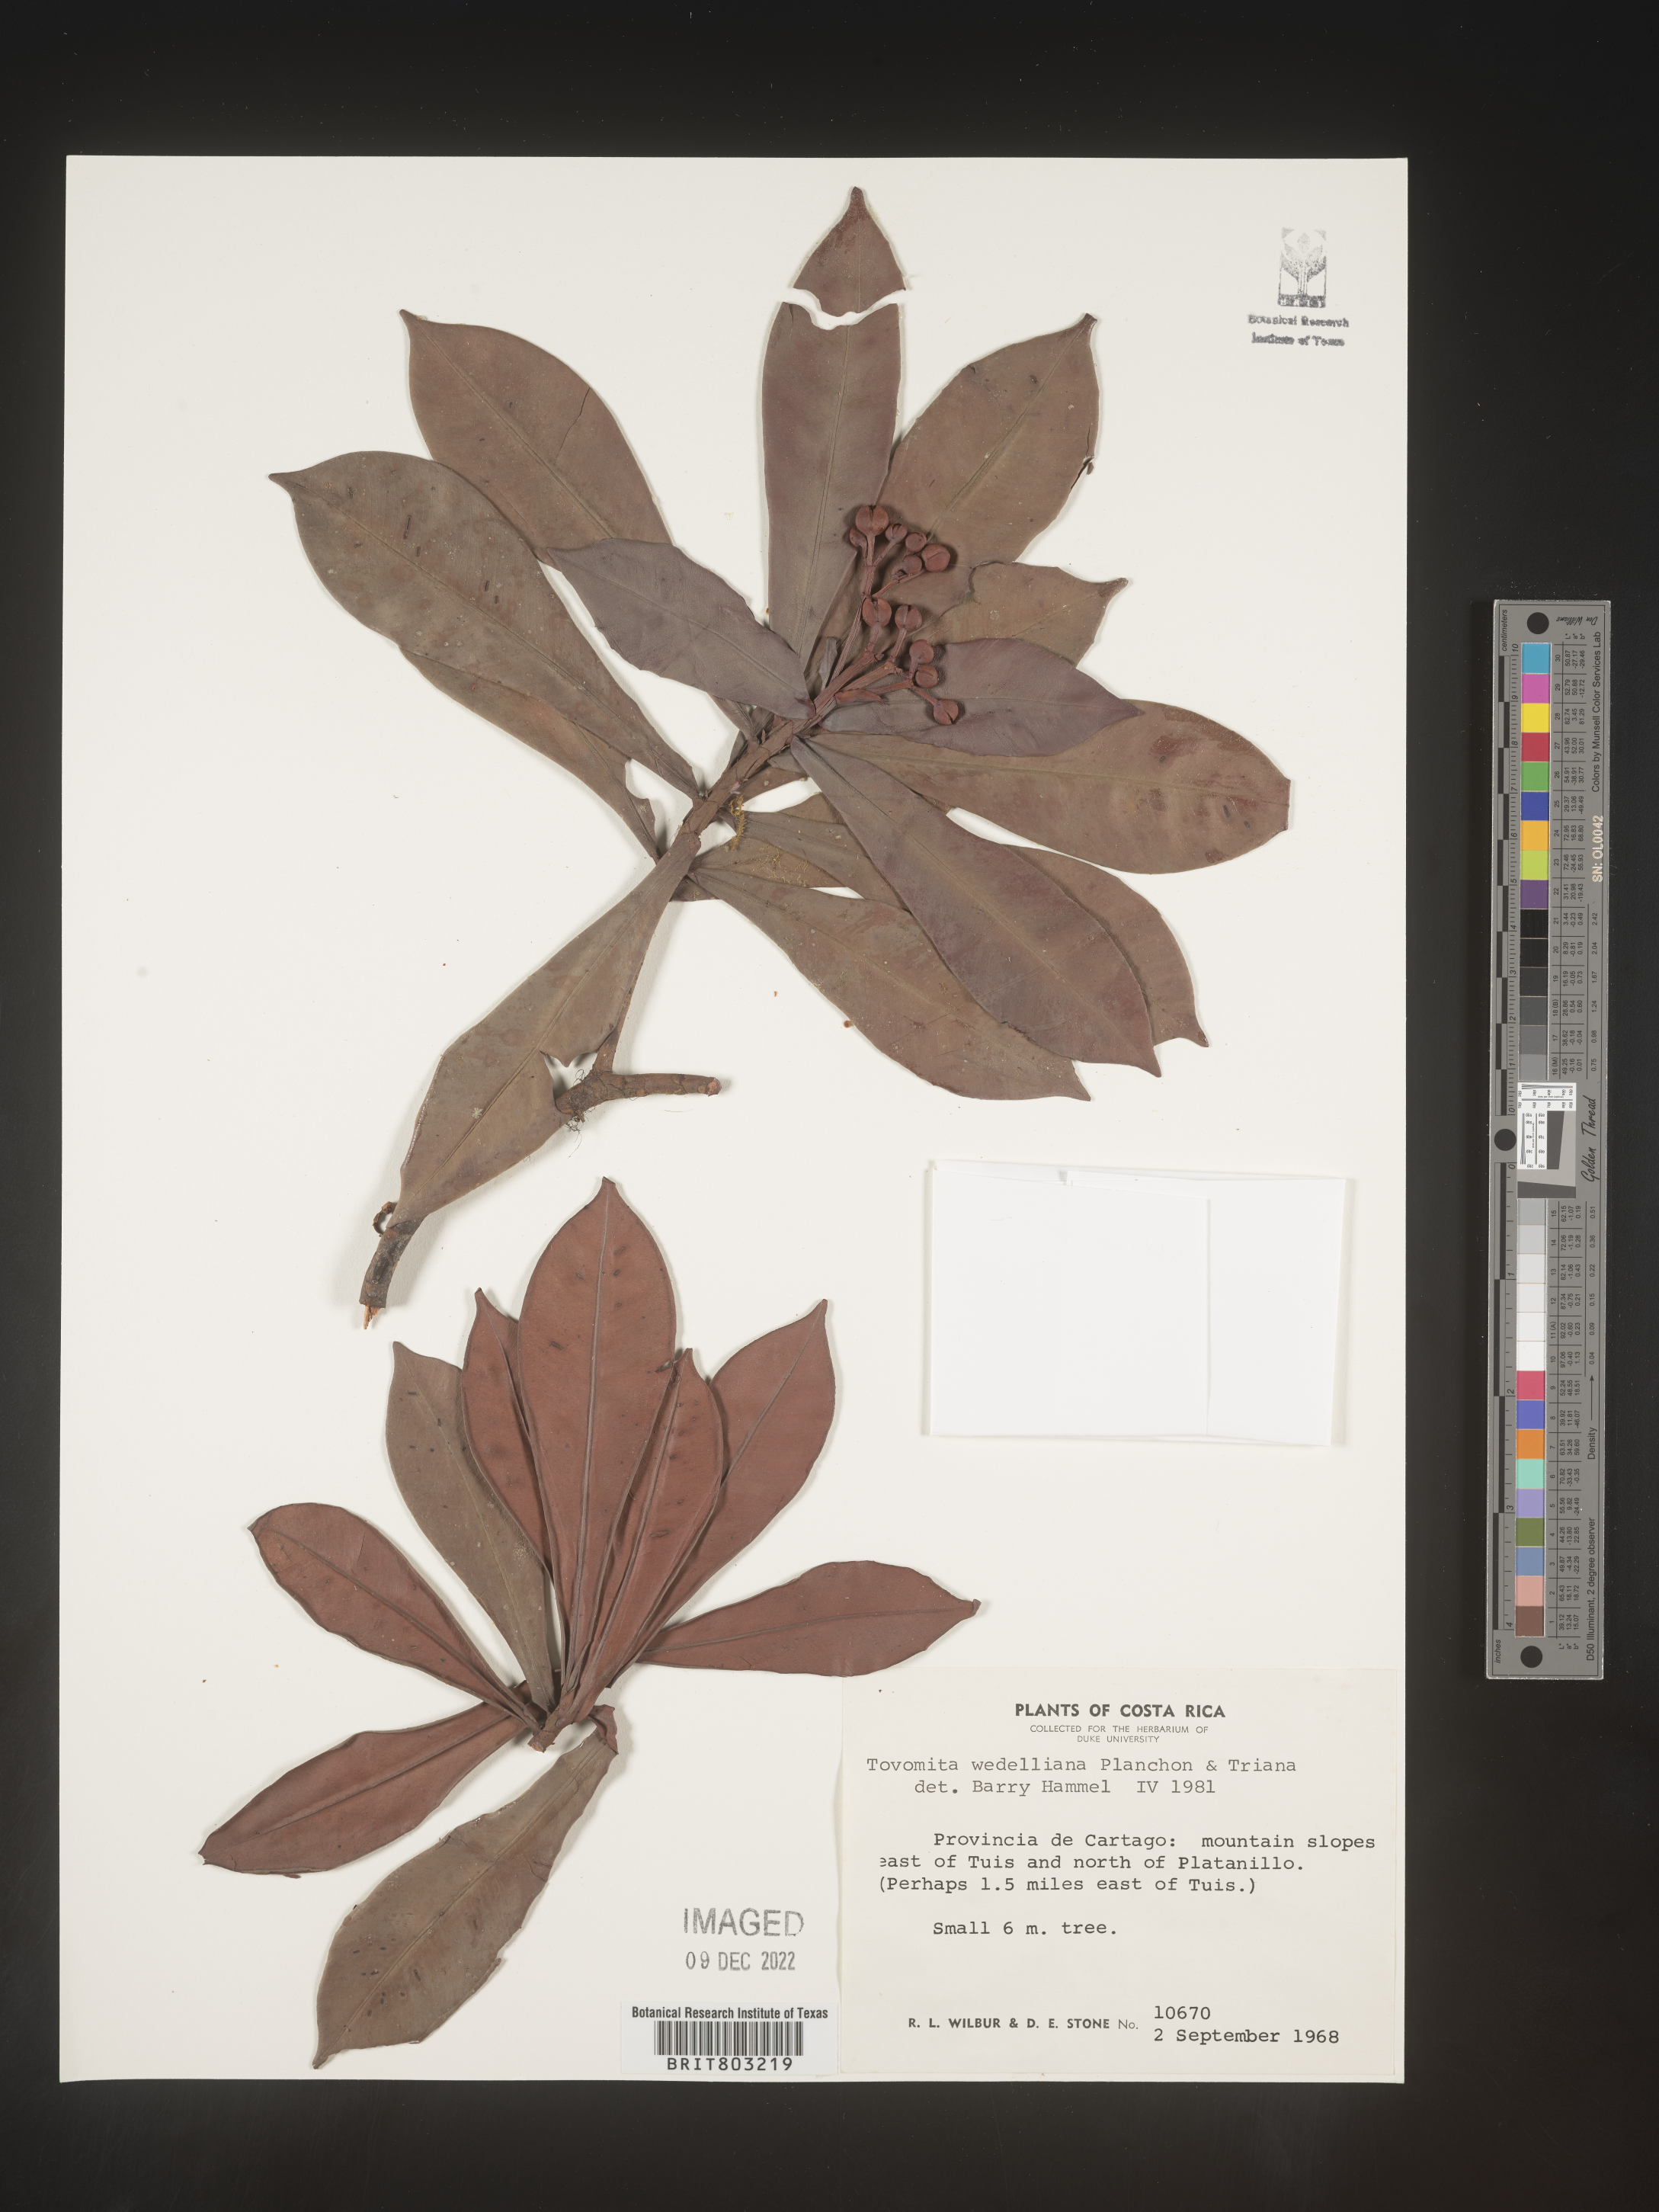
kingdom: Plantae
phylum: Tracheophyta
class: Magnoliopsida
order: Malpighiales
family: Clusiaceae
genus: Tovomita
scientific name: Tovomita
